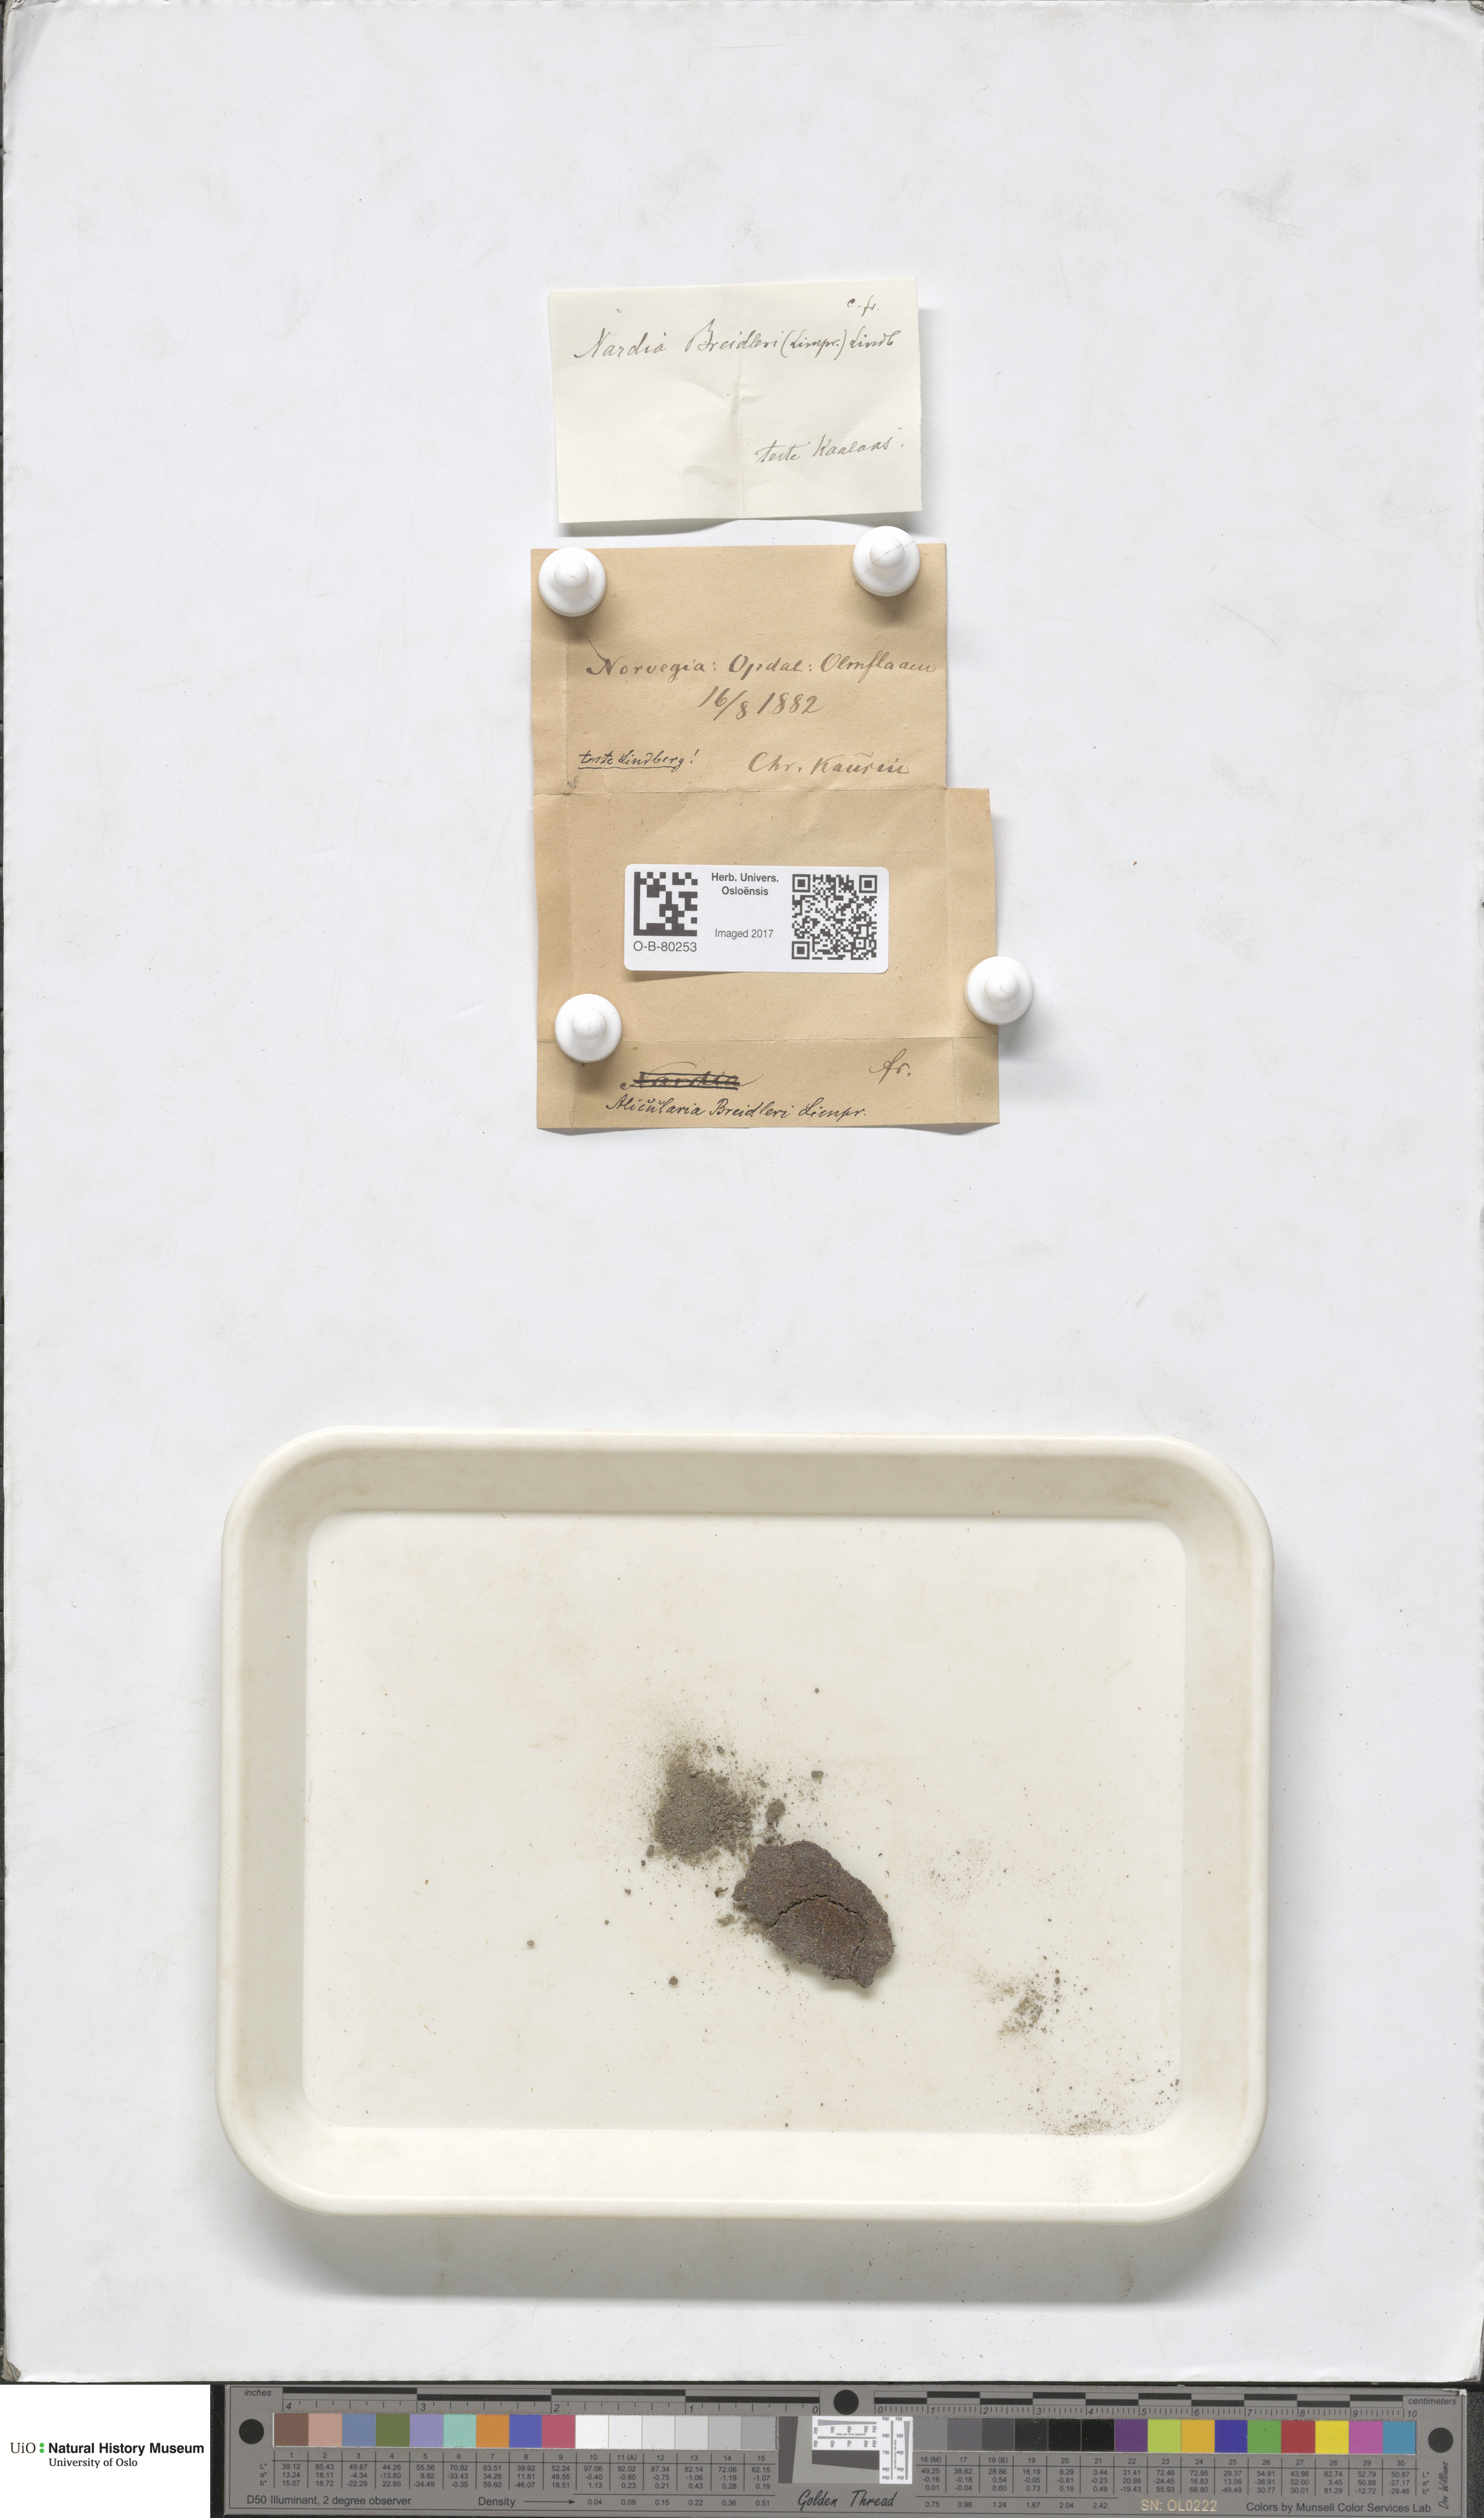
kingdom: Plantae
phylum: Marchantiophyta
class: Jungermanniopsida
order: Jungermanniales
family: Gymnomitriaceae
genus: Nardia
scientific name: Nardia breidleri
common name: Book flapwort
